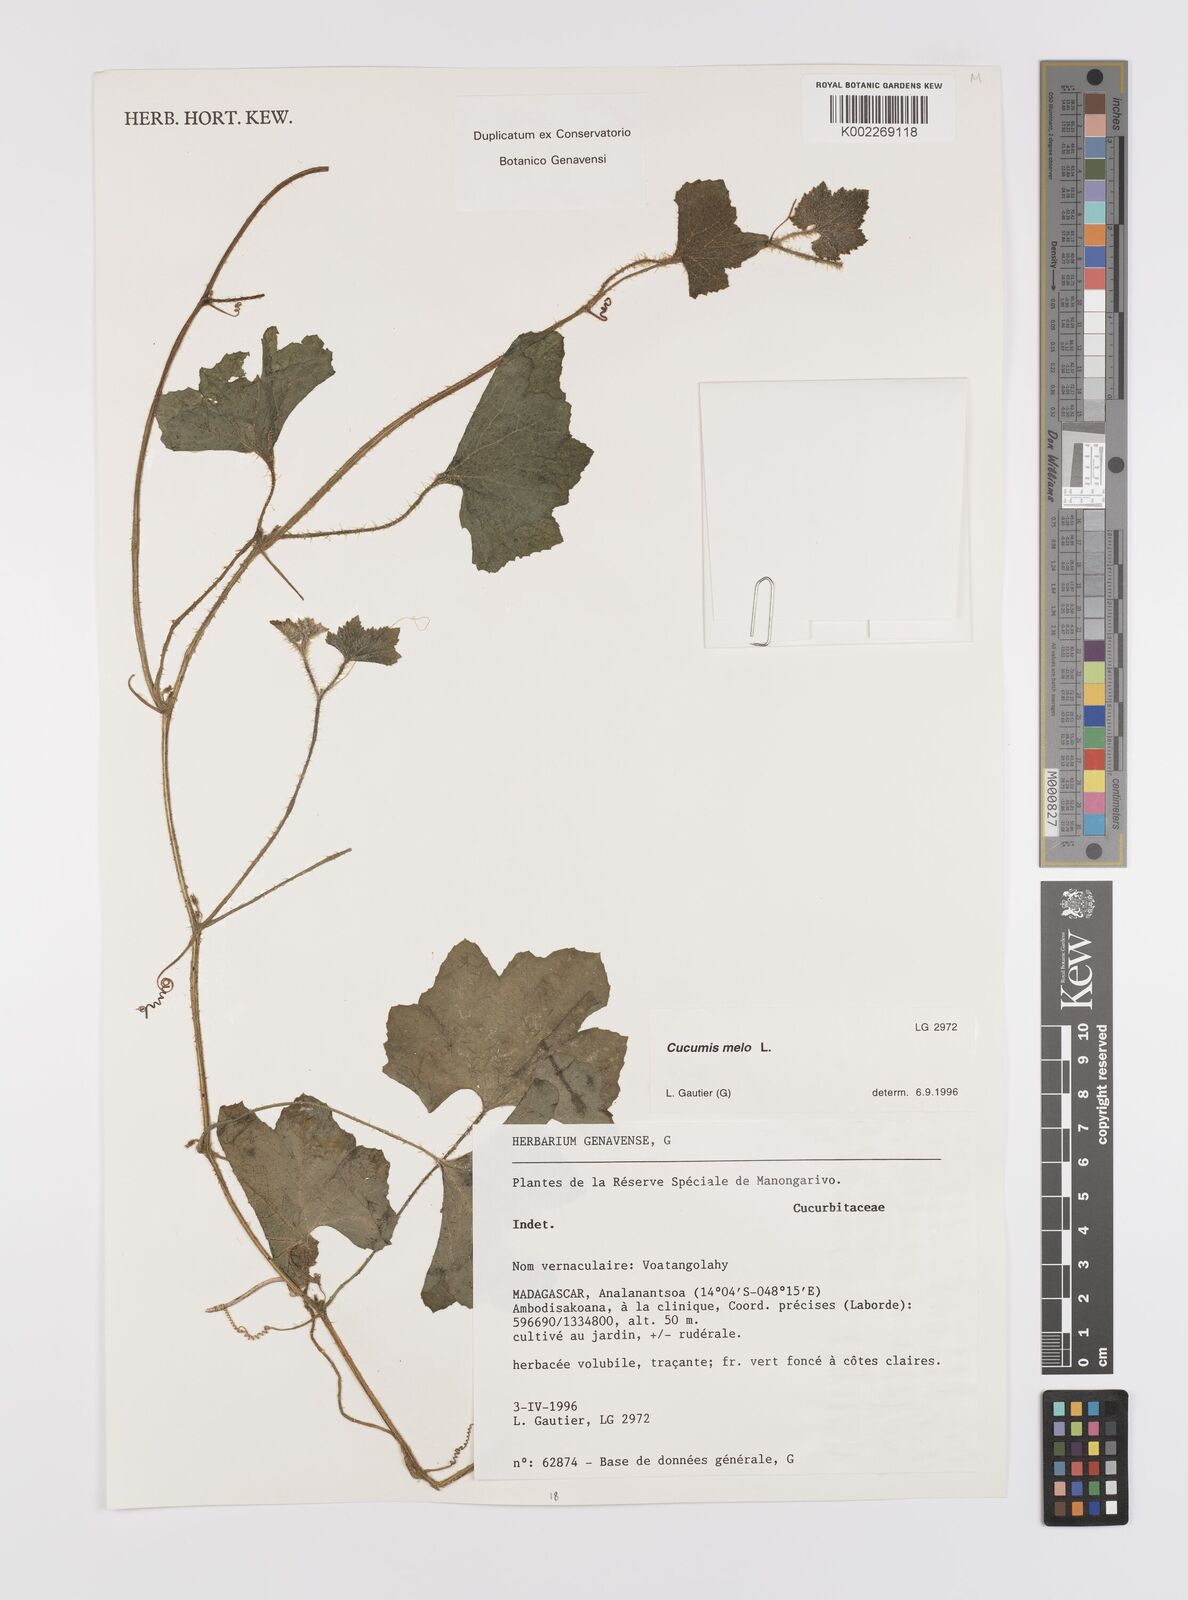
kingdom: Plantae
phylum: Tracheophyta
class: Magnoliopsida
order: Cucurbitales
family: Cucurbitaceae
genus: Cucumis
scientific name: Cucumis melo
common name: Melon
